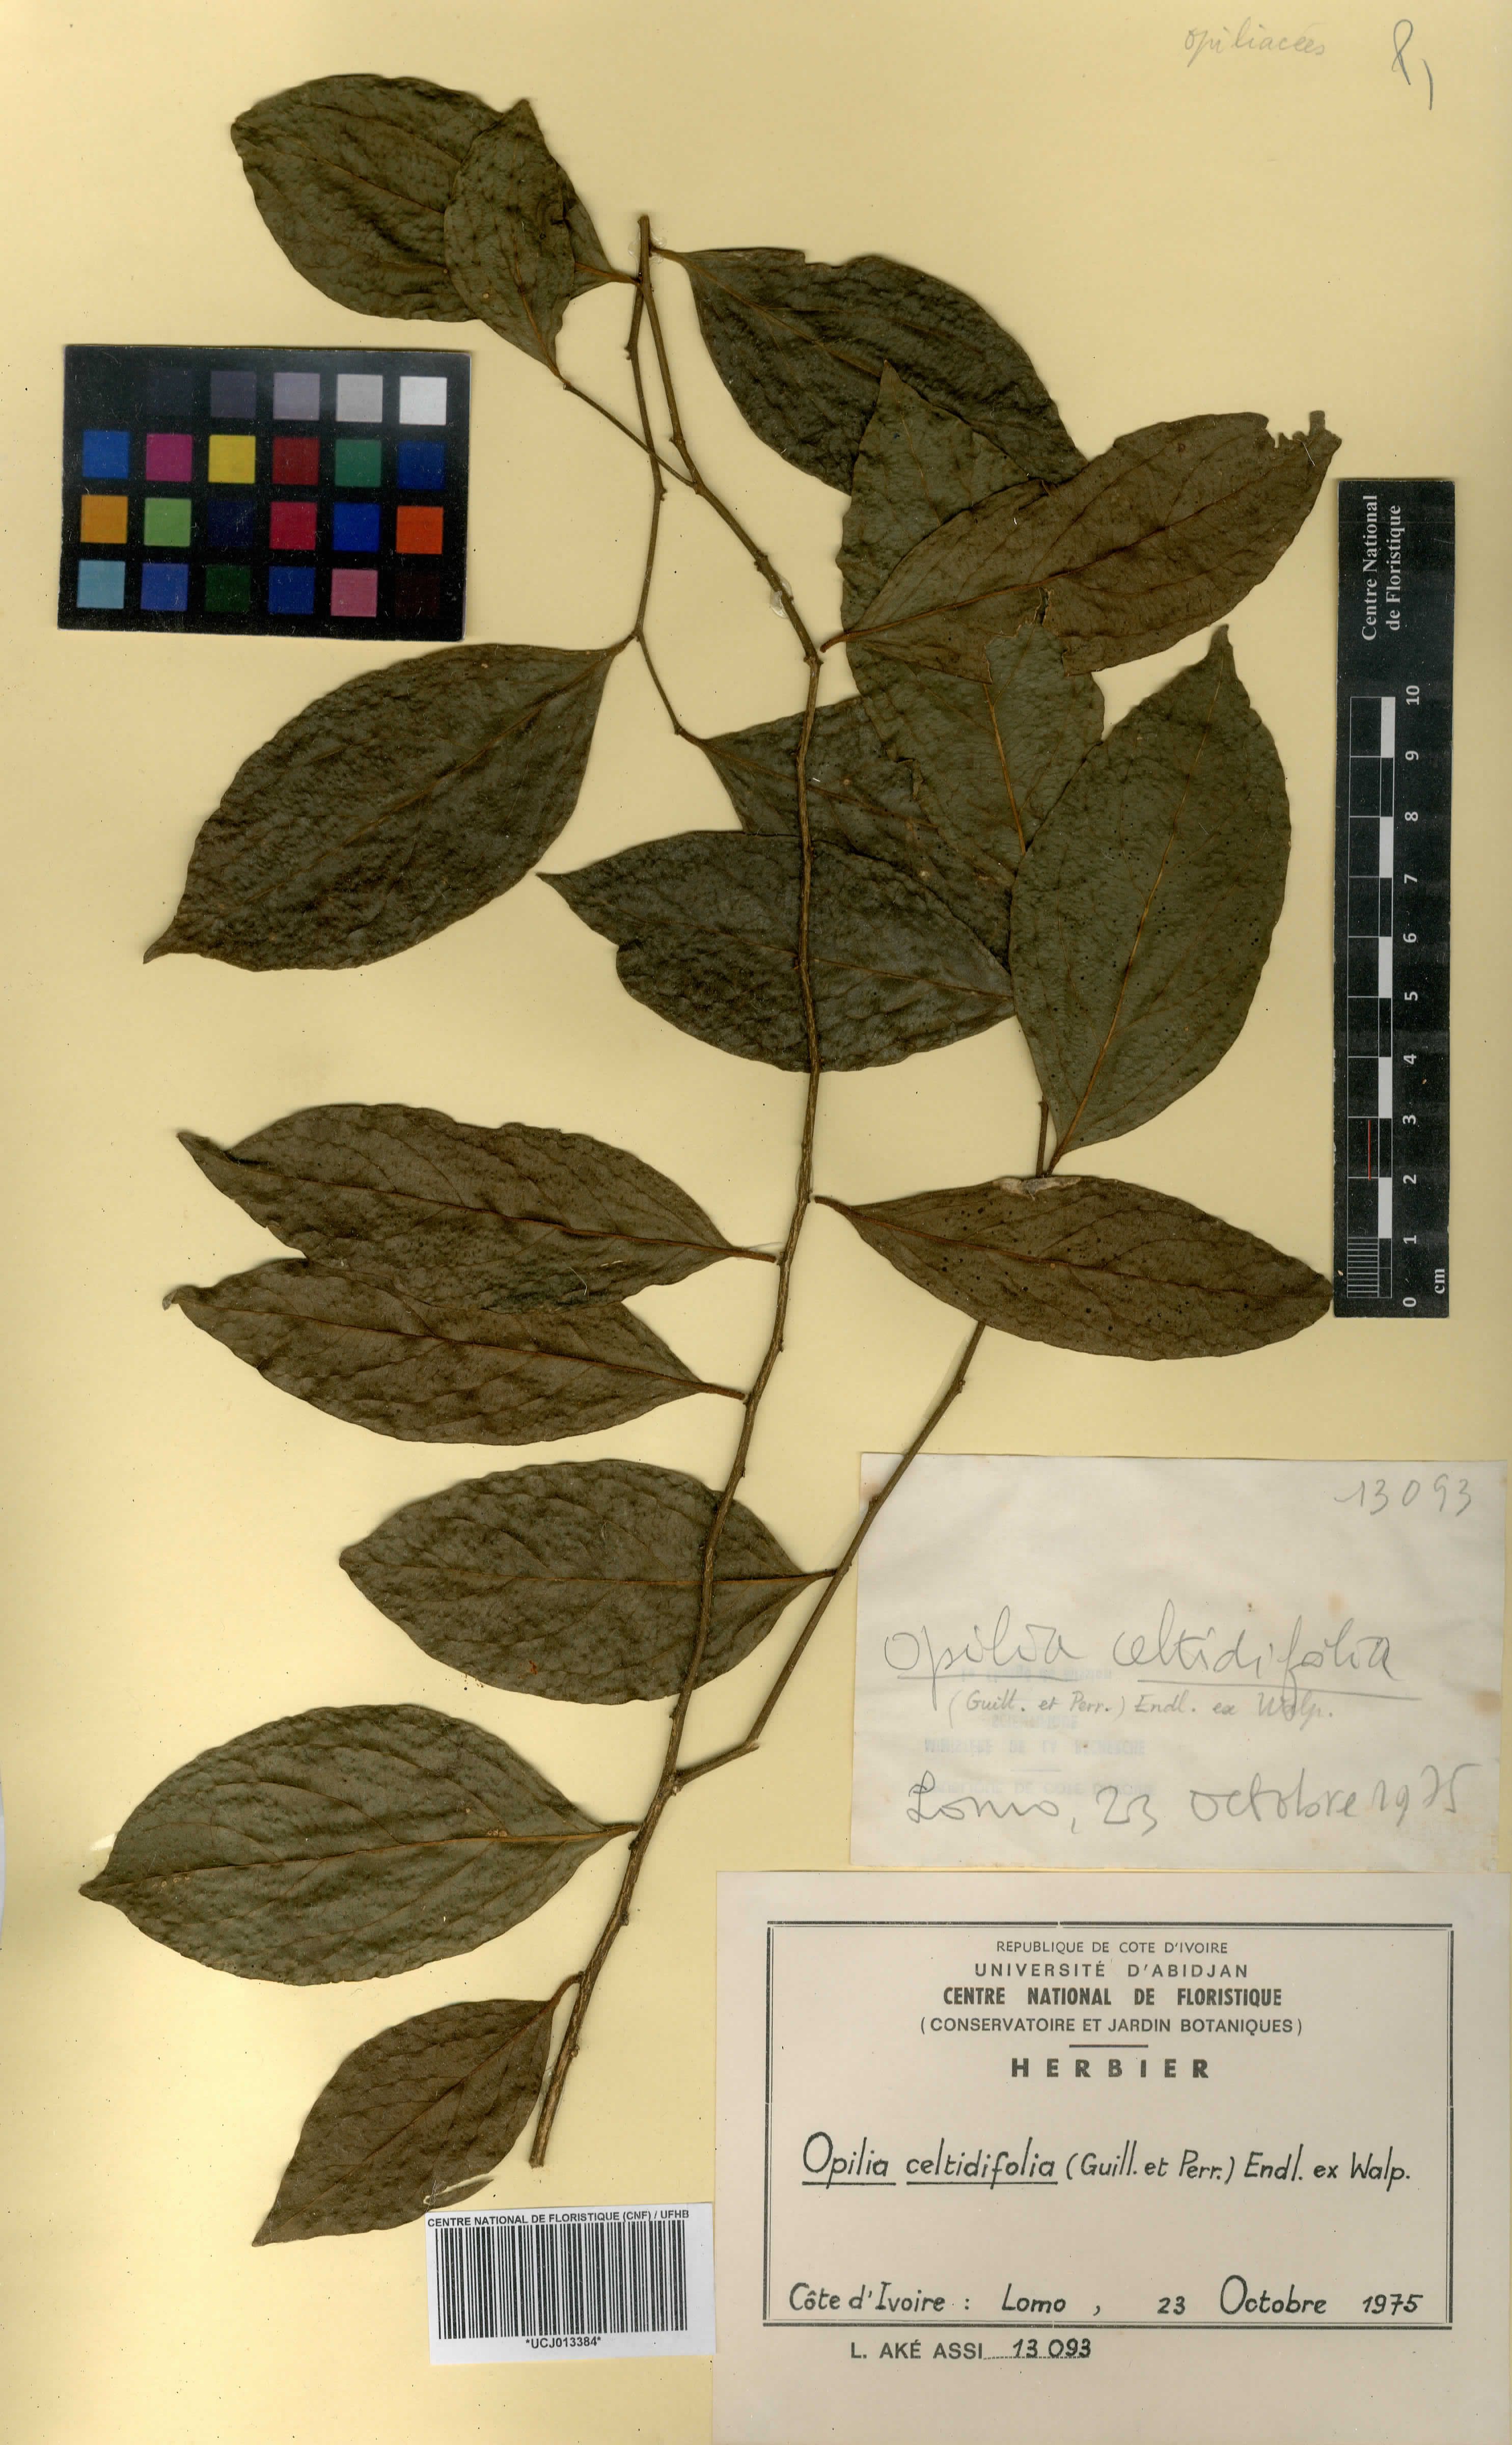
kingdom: Plantae
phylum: Tracheophyta
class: Magnoliopsida
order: Santalales
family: Opiliaceae
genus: Opilia
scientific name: Opilia amentacea
